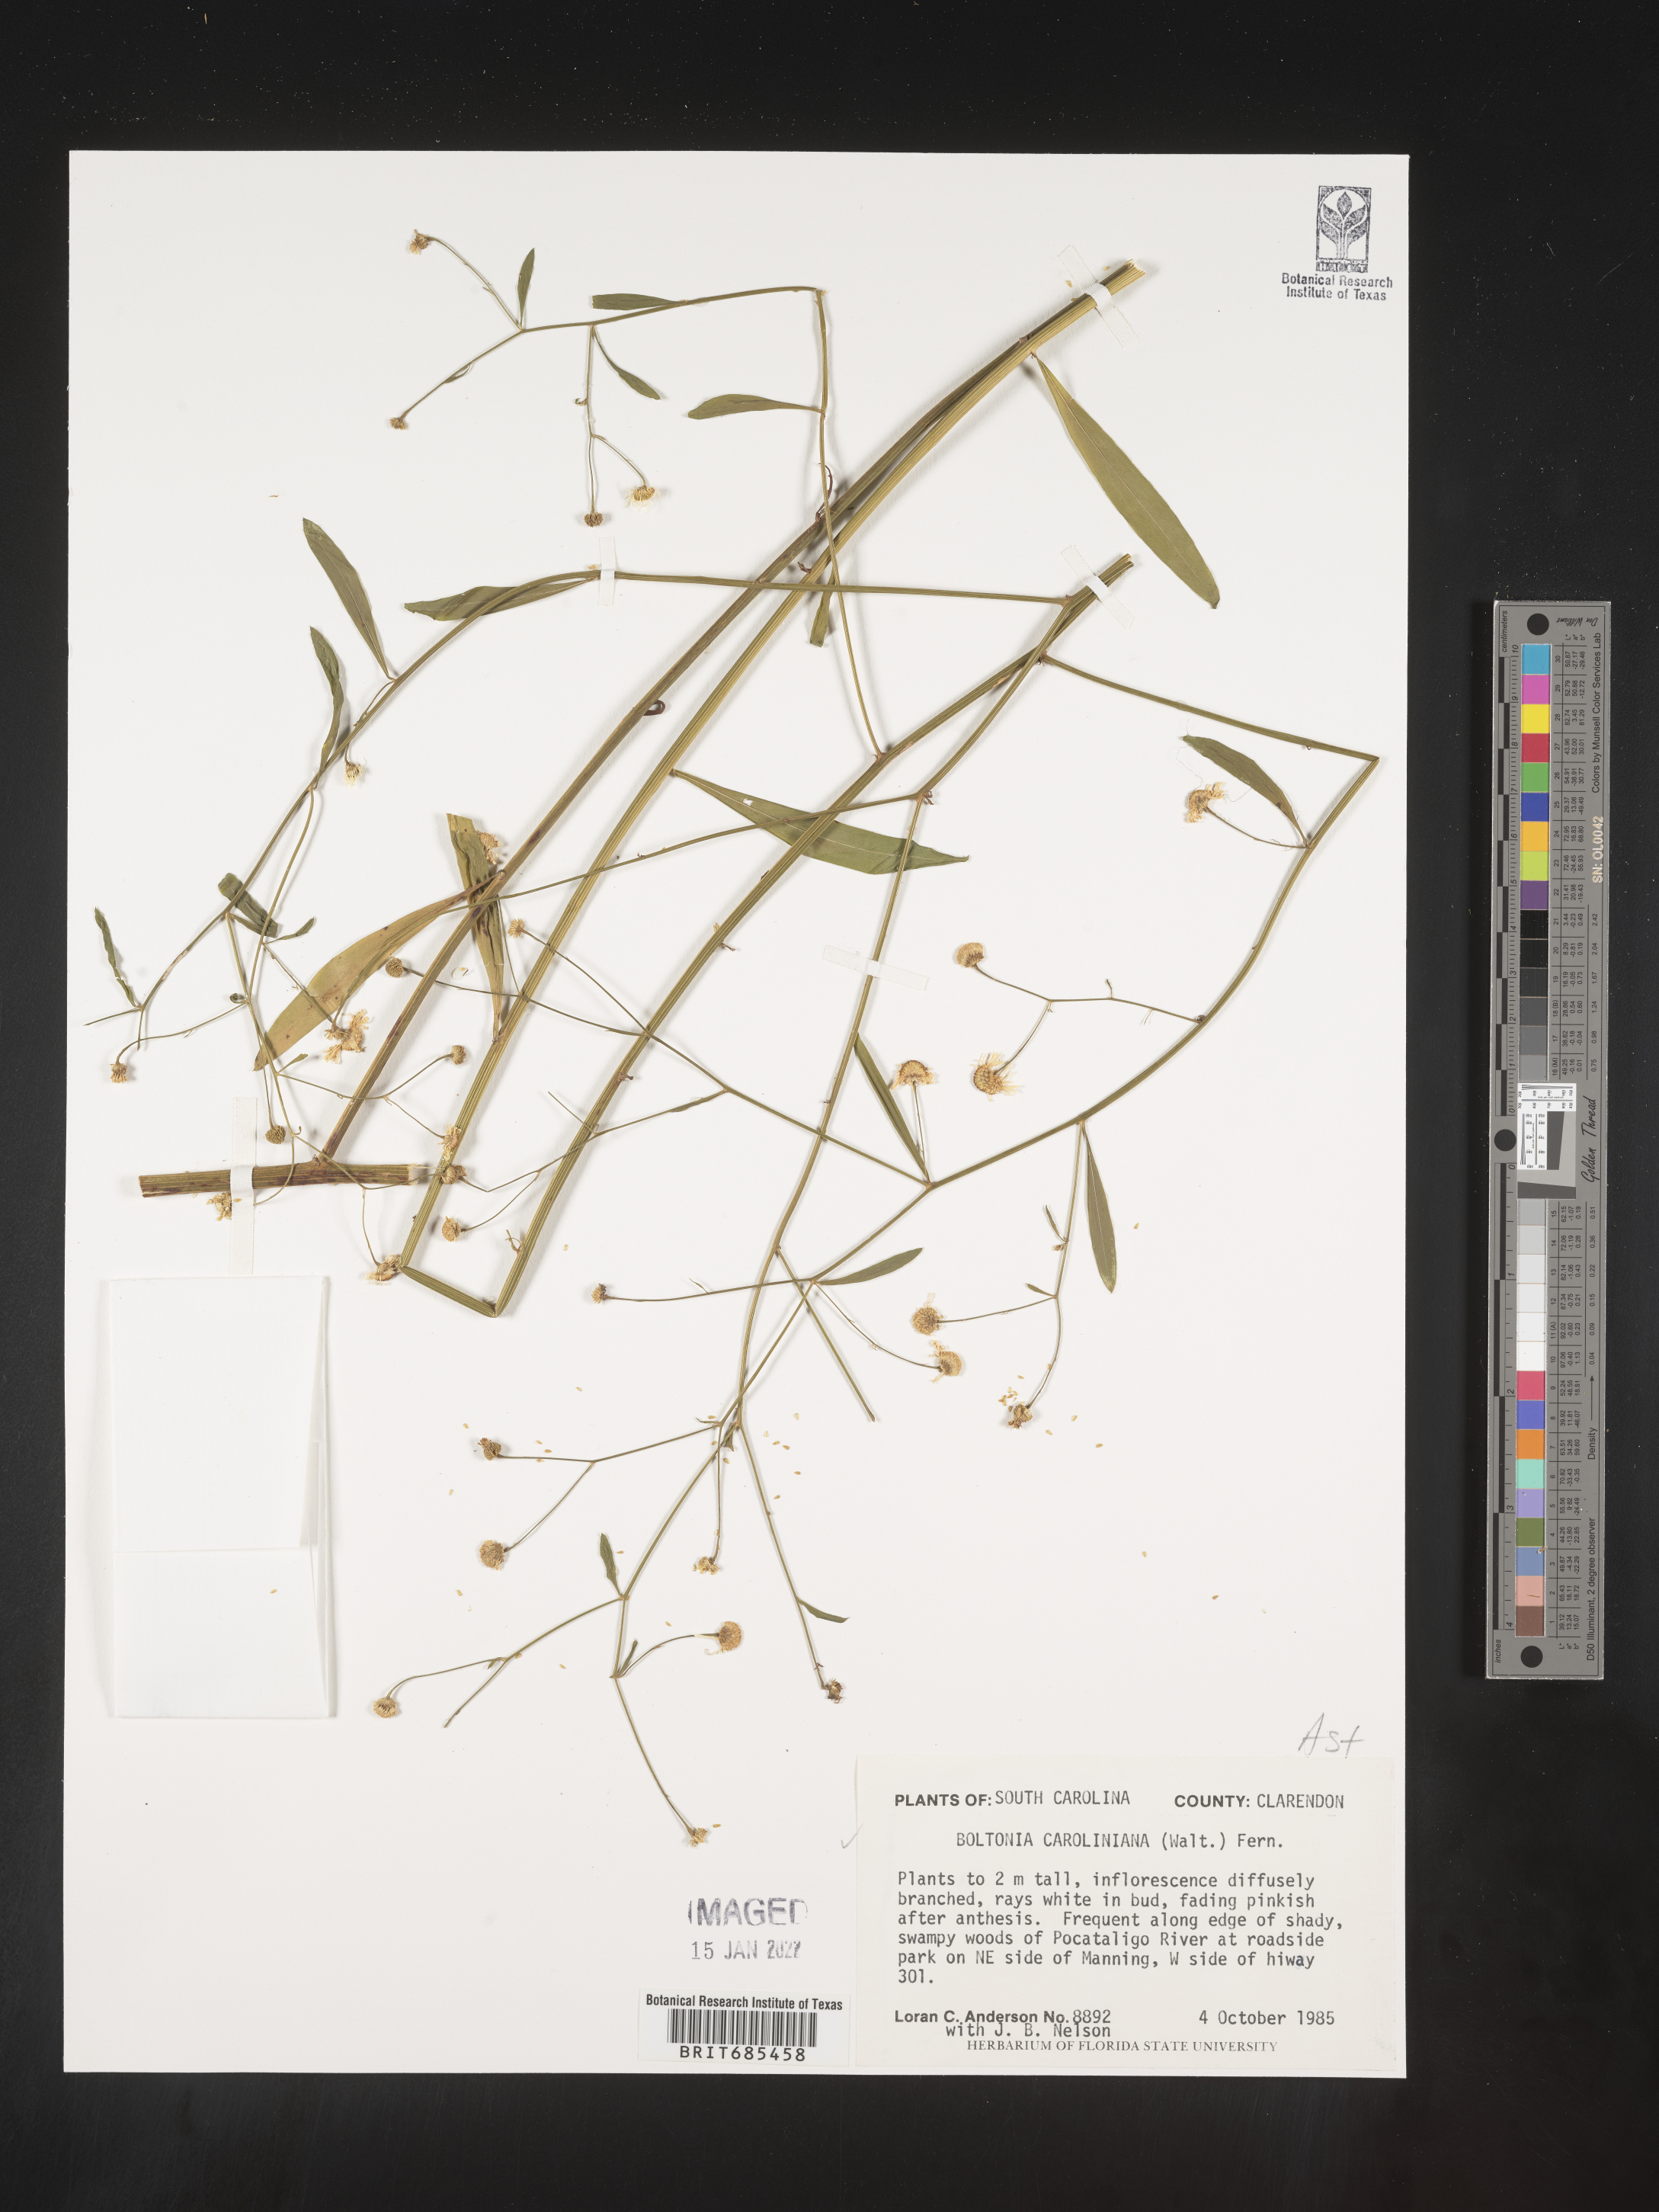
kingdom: Plantae
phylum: Tracheophyta
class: Magnoliopsida
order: Asterales
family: Asteraceae
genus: Boltonia
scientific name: Boltonia caroliniana
